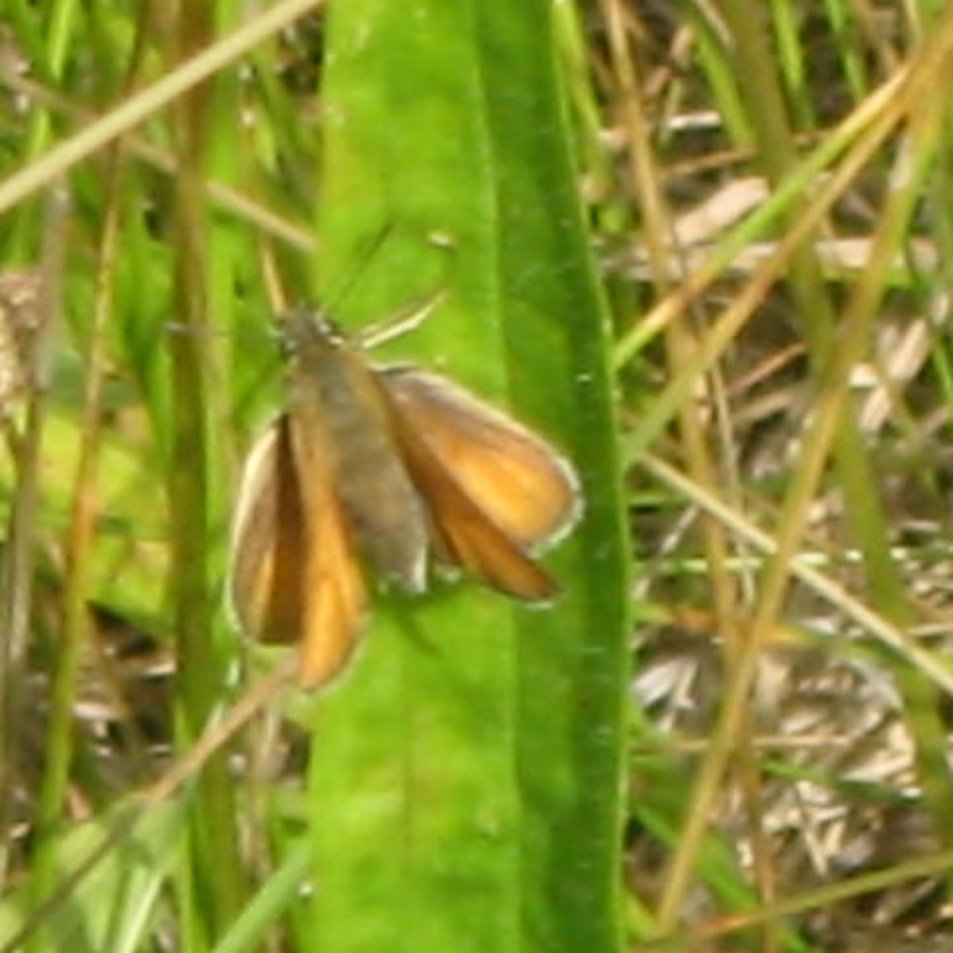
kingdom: Animalia
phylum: Arthropoda
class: Insecta
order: Lepidoptera
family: Hesperiidae
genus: Thymelicus
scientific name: Thymelicus lineola
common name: European Skipper
